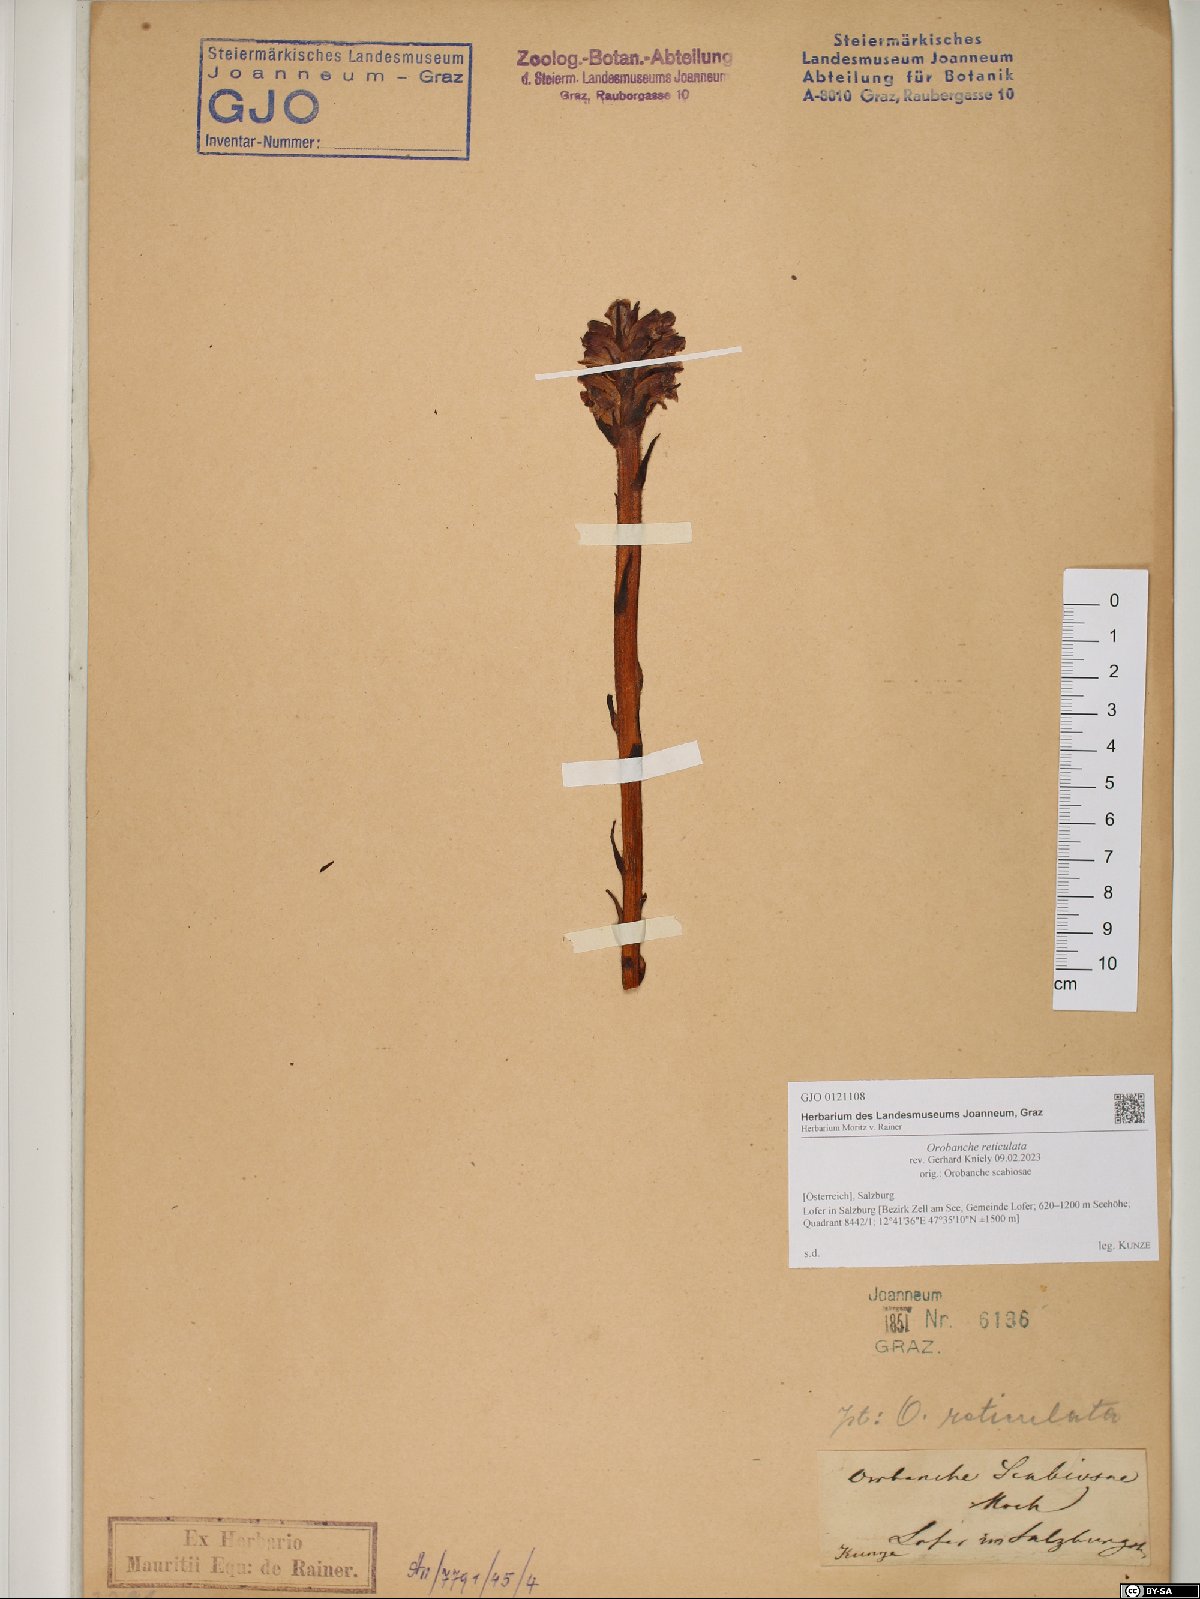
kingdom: Plantae
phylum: Tracheophyta
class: Magnoliopsida
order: Lamiales
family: Orobanchaceae
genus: Orobanche
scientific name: Orobanche reticulata
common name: Thistle broomrape
